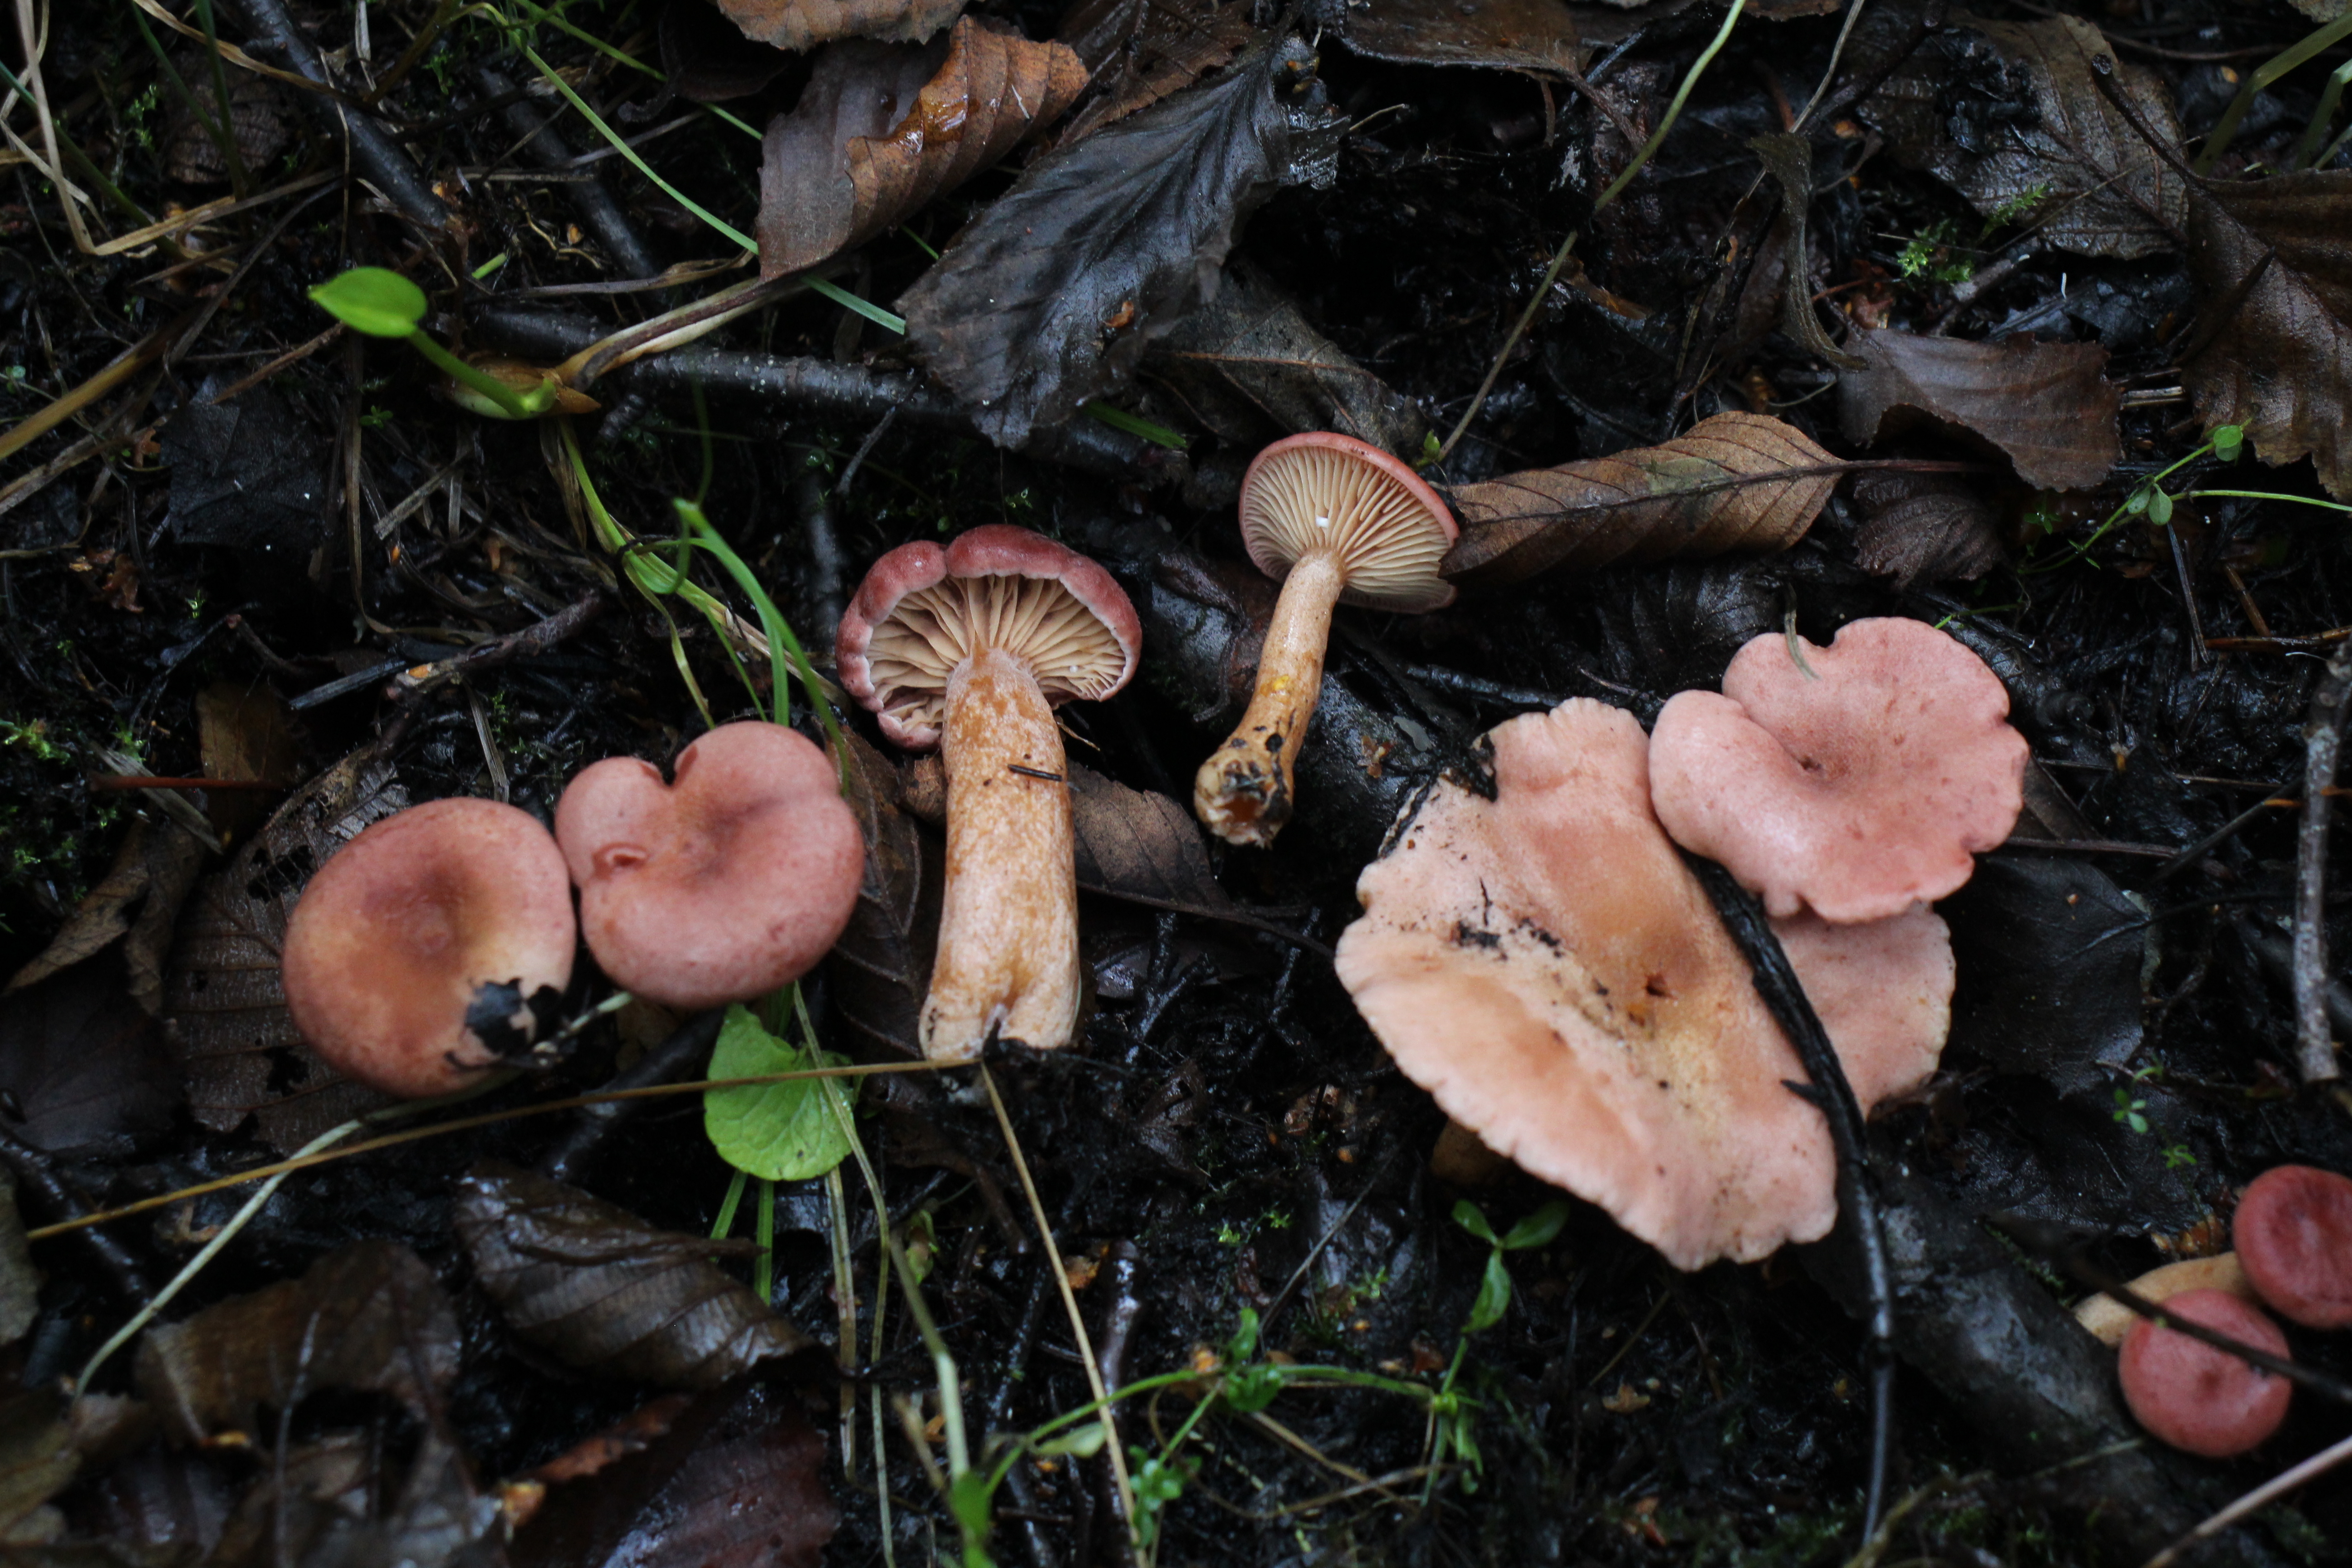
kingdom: Fungi
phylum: Basidiomycota
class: Agaricomycetes
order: Russulales
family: Russulaceae
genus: Lactarius
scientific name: Lactarius lilacinus
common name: Lilac milkcap
